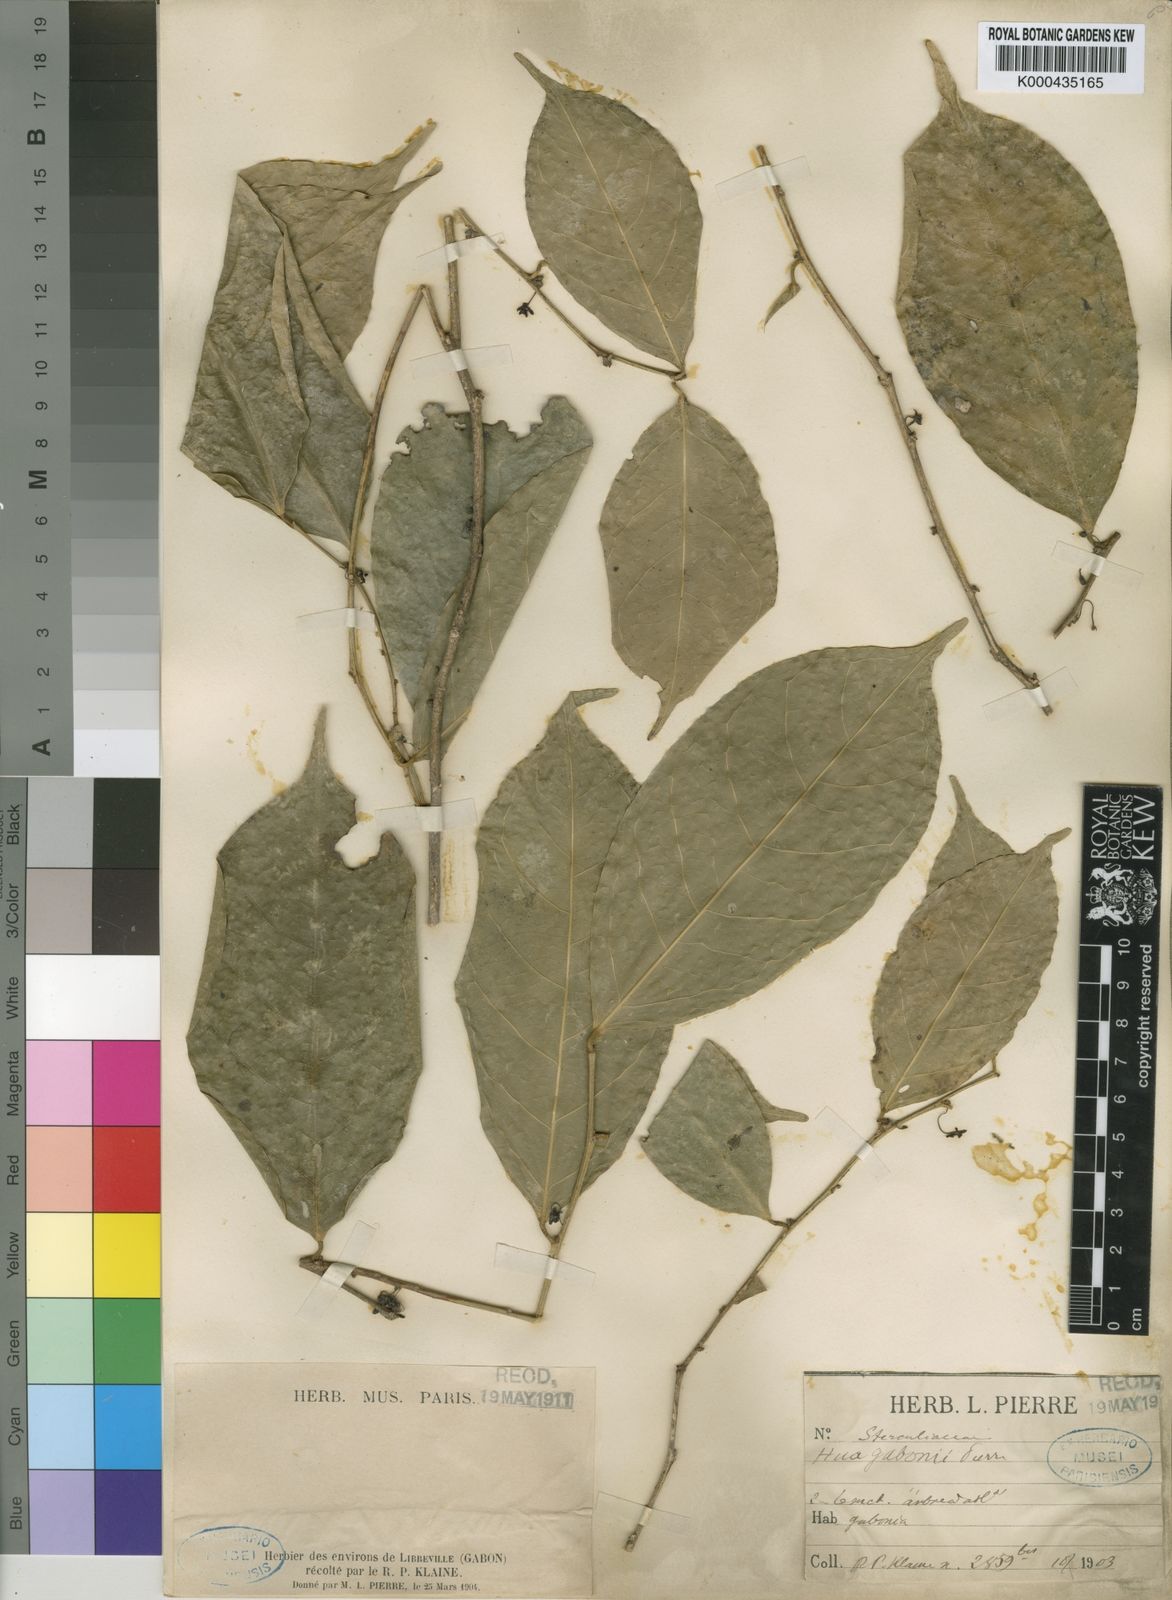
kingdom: Plantae
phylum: Tracheophyta
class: Magnoliopsida
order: Oxalidales
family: Huaceae
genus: Hua
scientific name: Hua gaboni
